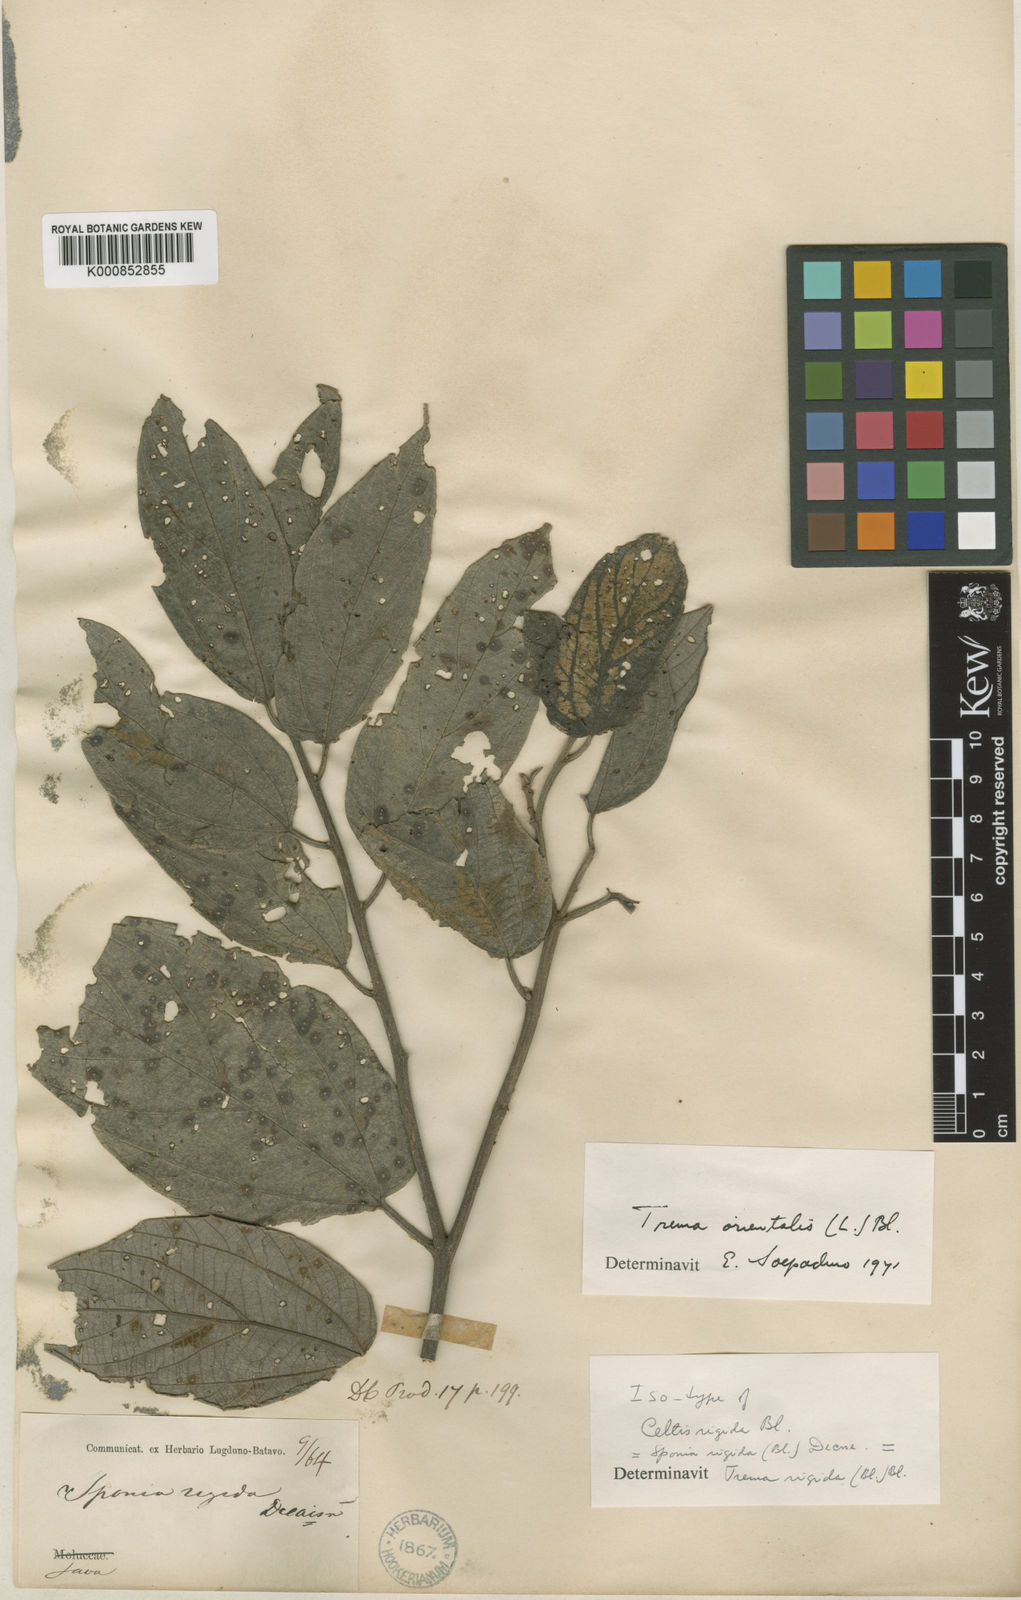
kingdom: Plantae
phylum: Tracheophyta
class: Magnoliopsida
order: Rosales
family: Cannabaceae
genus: Trema
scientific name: Trema
